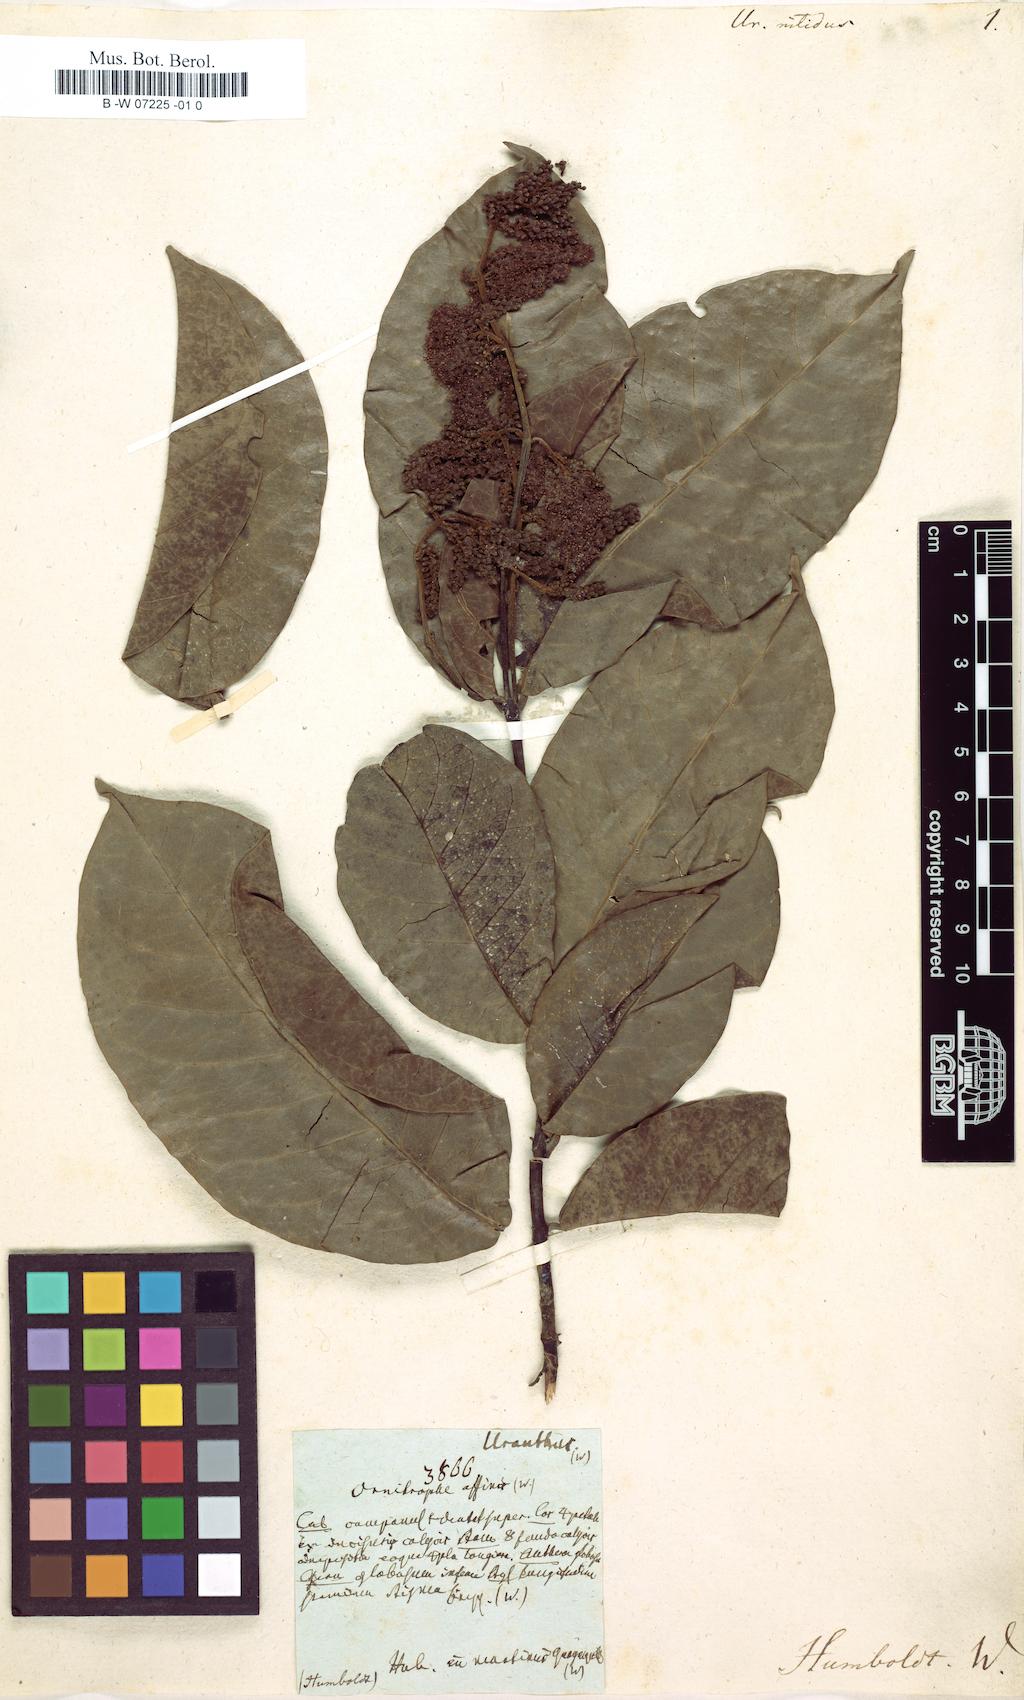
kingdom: Plantae
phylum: Tracheophyta
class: Magnoliopsida
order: Sapindales
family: Sapindaceae
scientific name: Sapindaceae
